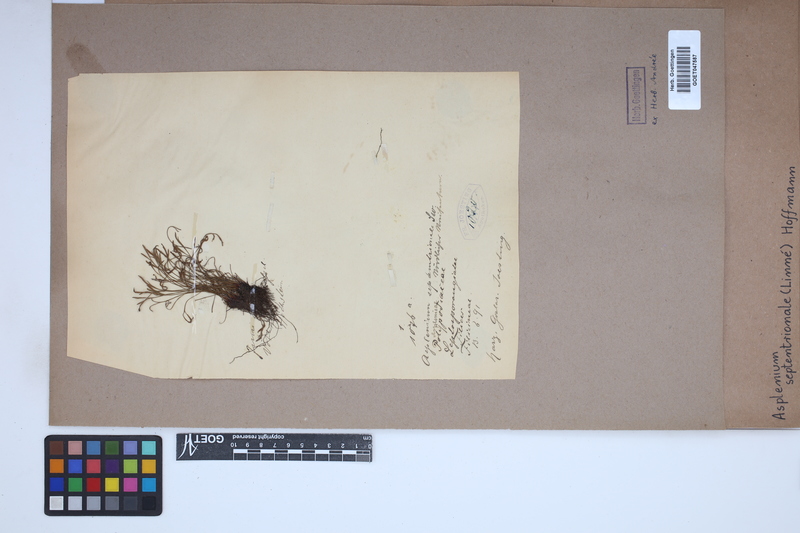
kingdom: Plantae
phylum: Tracheophyta
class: Polypodiopsida
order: Polypodiales
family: Aspleniaceae
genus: Asplenium
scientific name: Asplenium septentrionale
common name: Forked spleenwort
